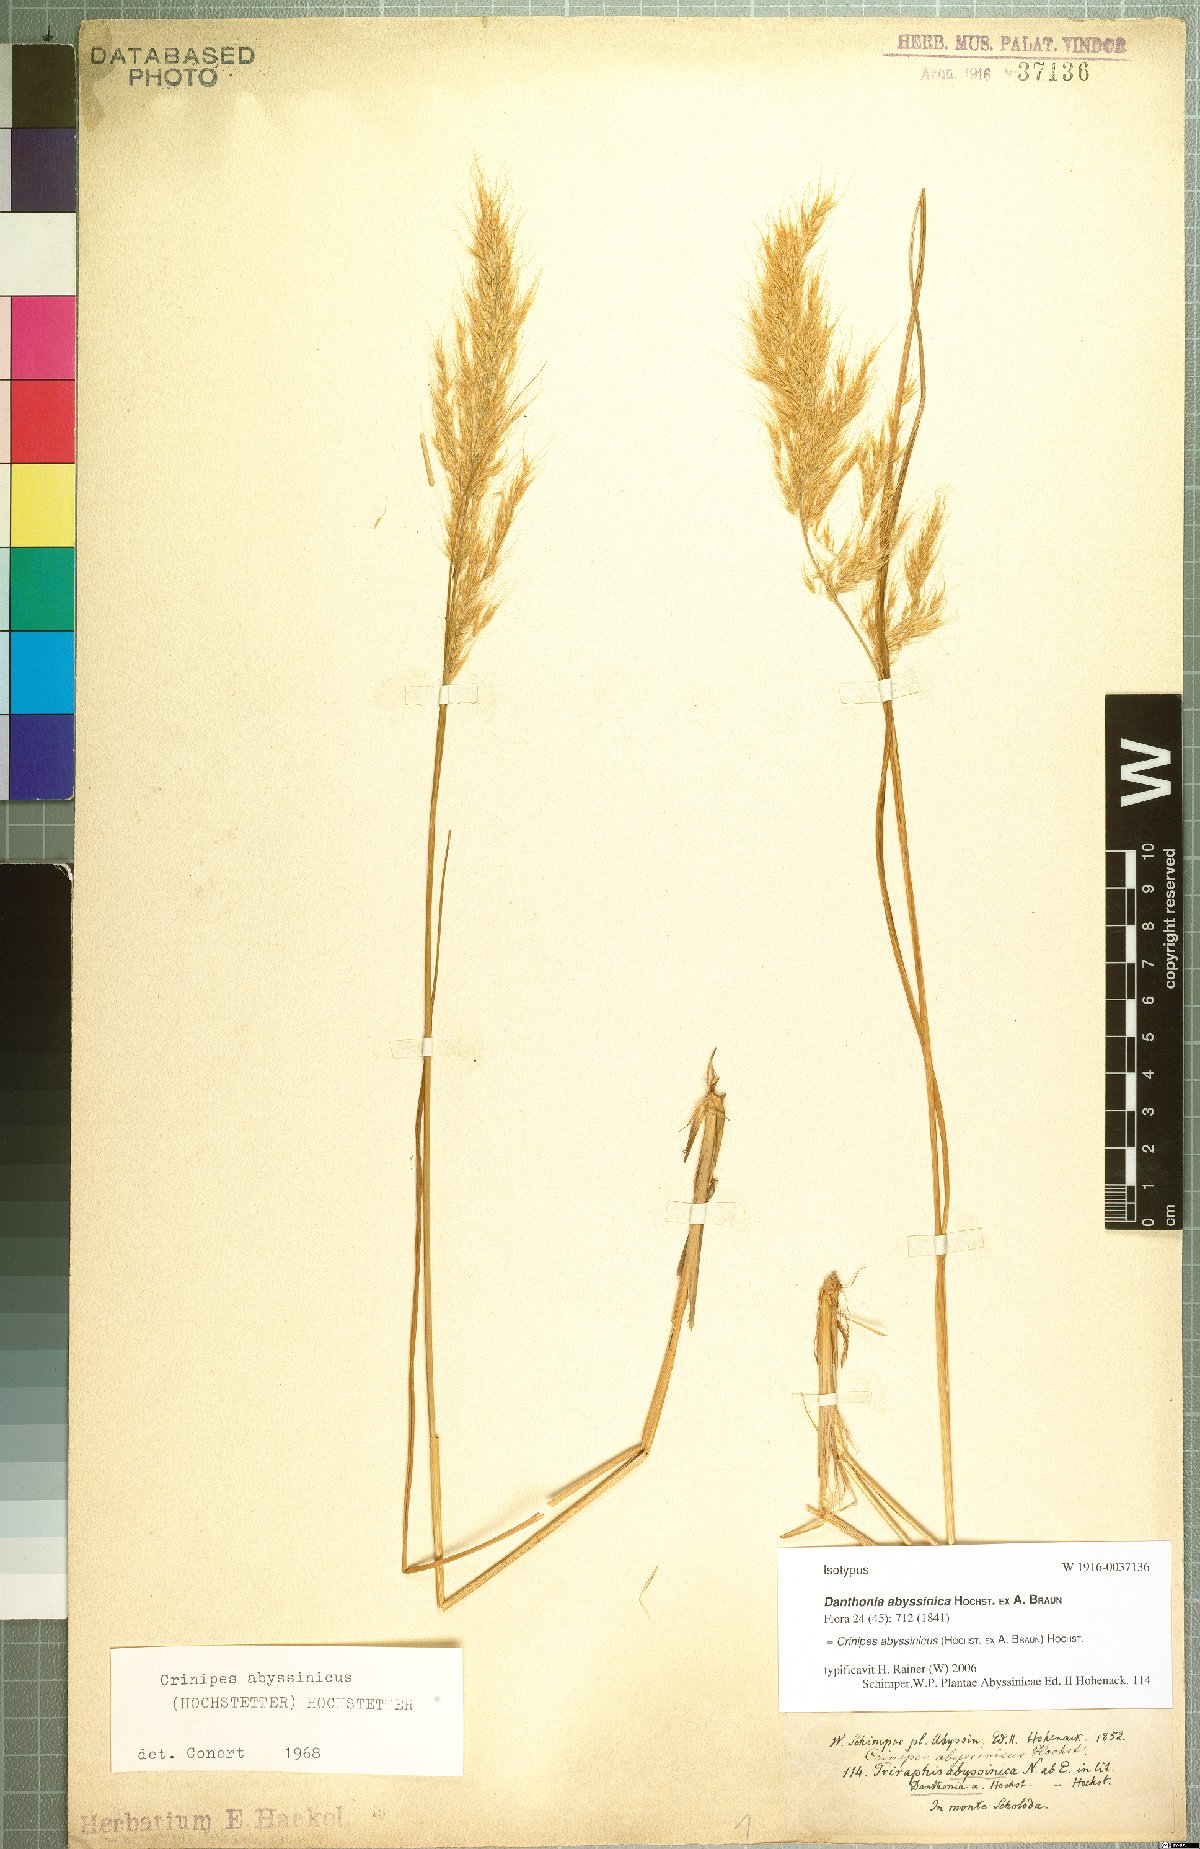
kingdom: Plantae
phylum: Tracheophyta
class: Liliopsida
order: Poales
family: Poaceae
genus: Crinipes
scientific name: Crinipes abyssinicus
